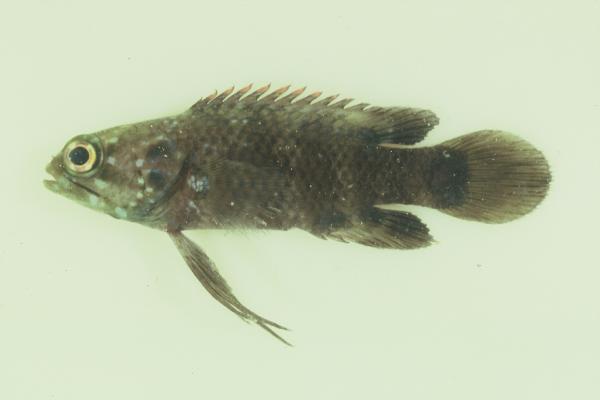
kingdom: Animalia
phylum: Chordata
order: Perciformes
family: Plesiopidae
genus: Plesiops
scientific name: Plesiops coeruleolineatus
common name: Crimsontip longfin
